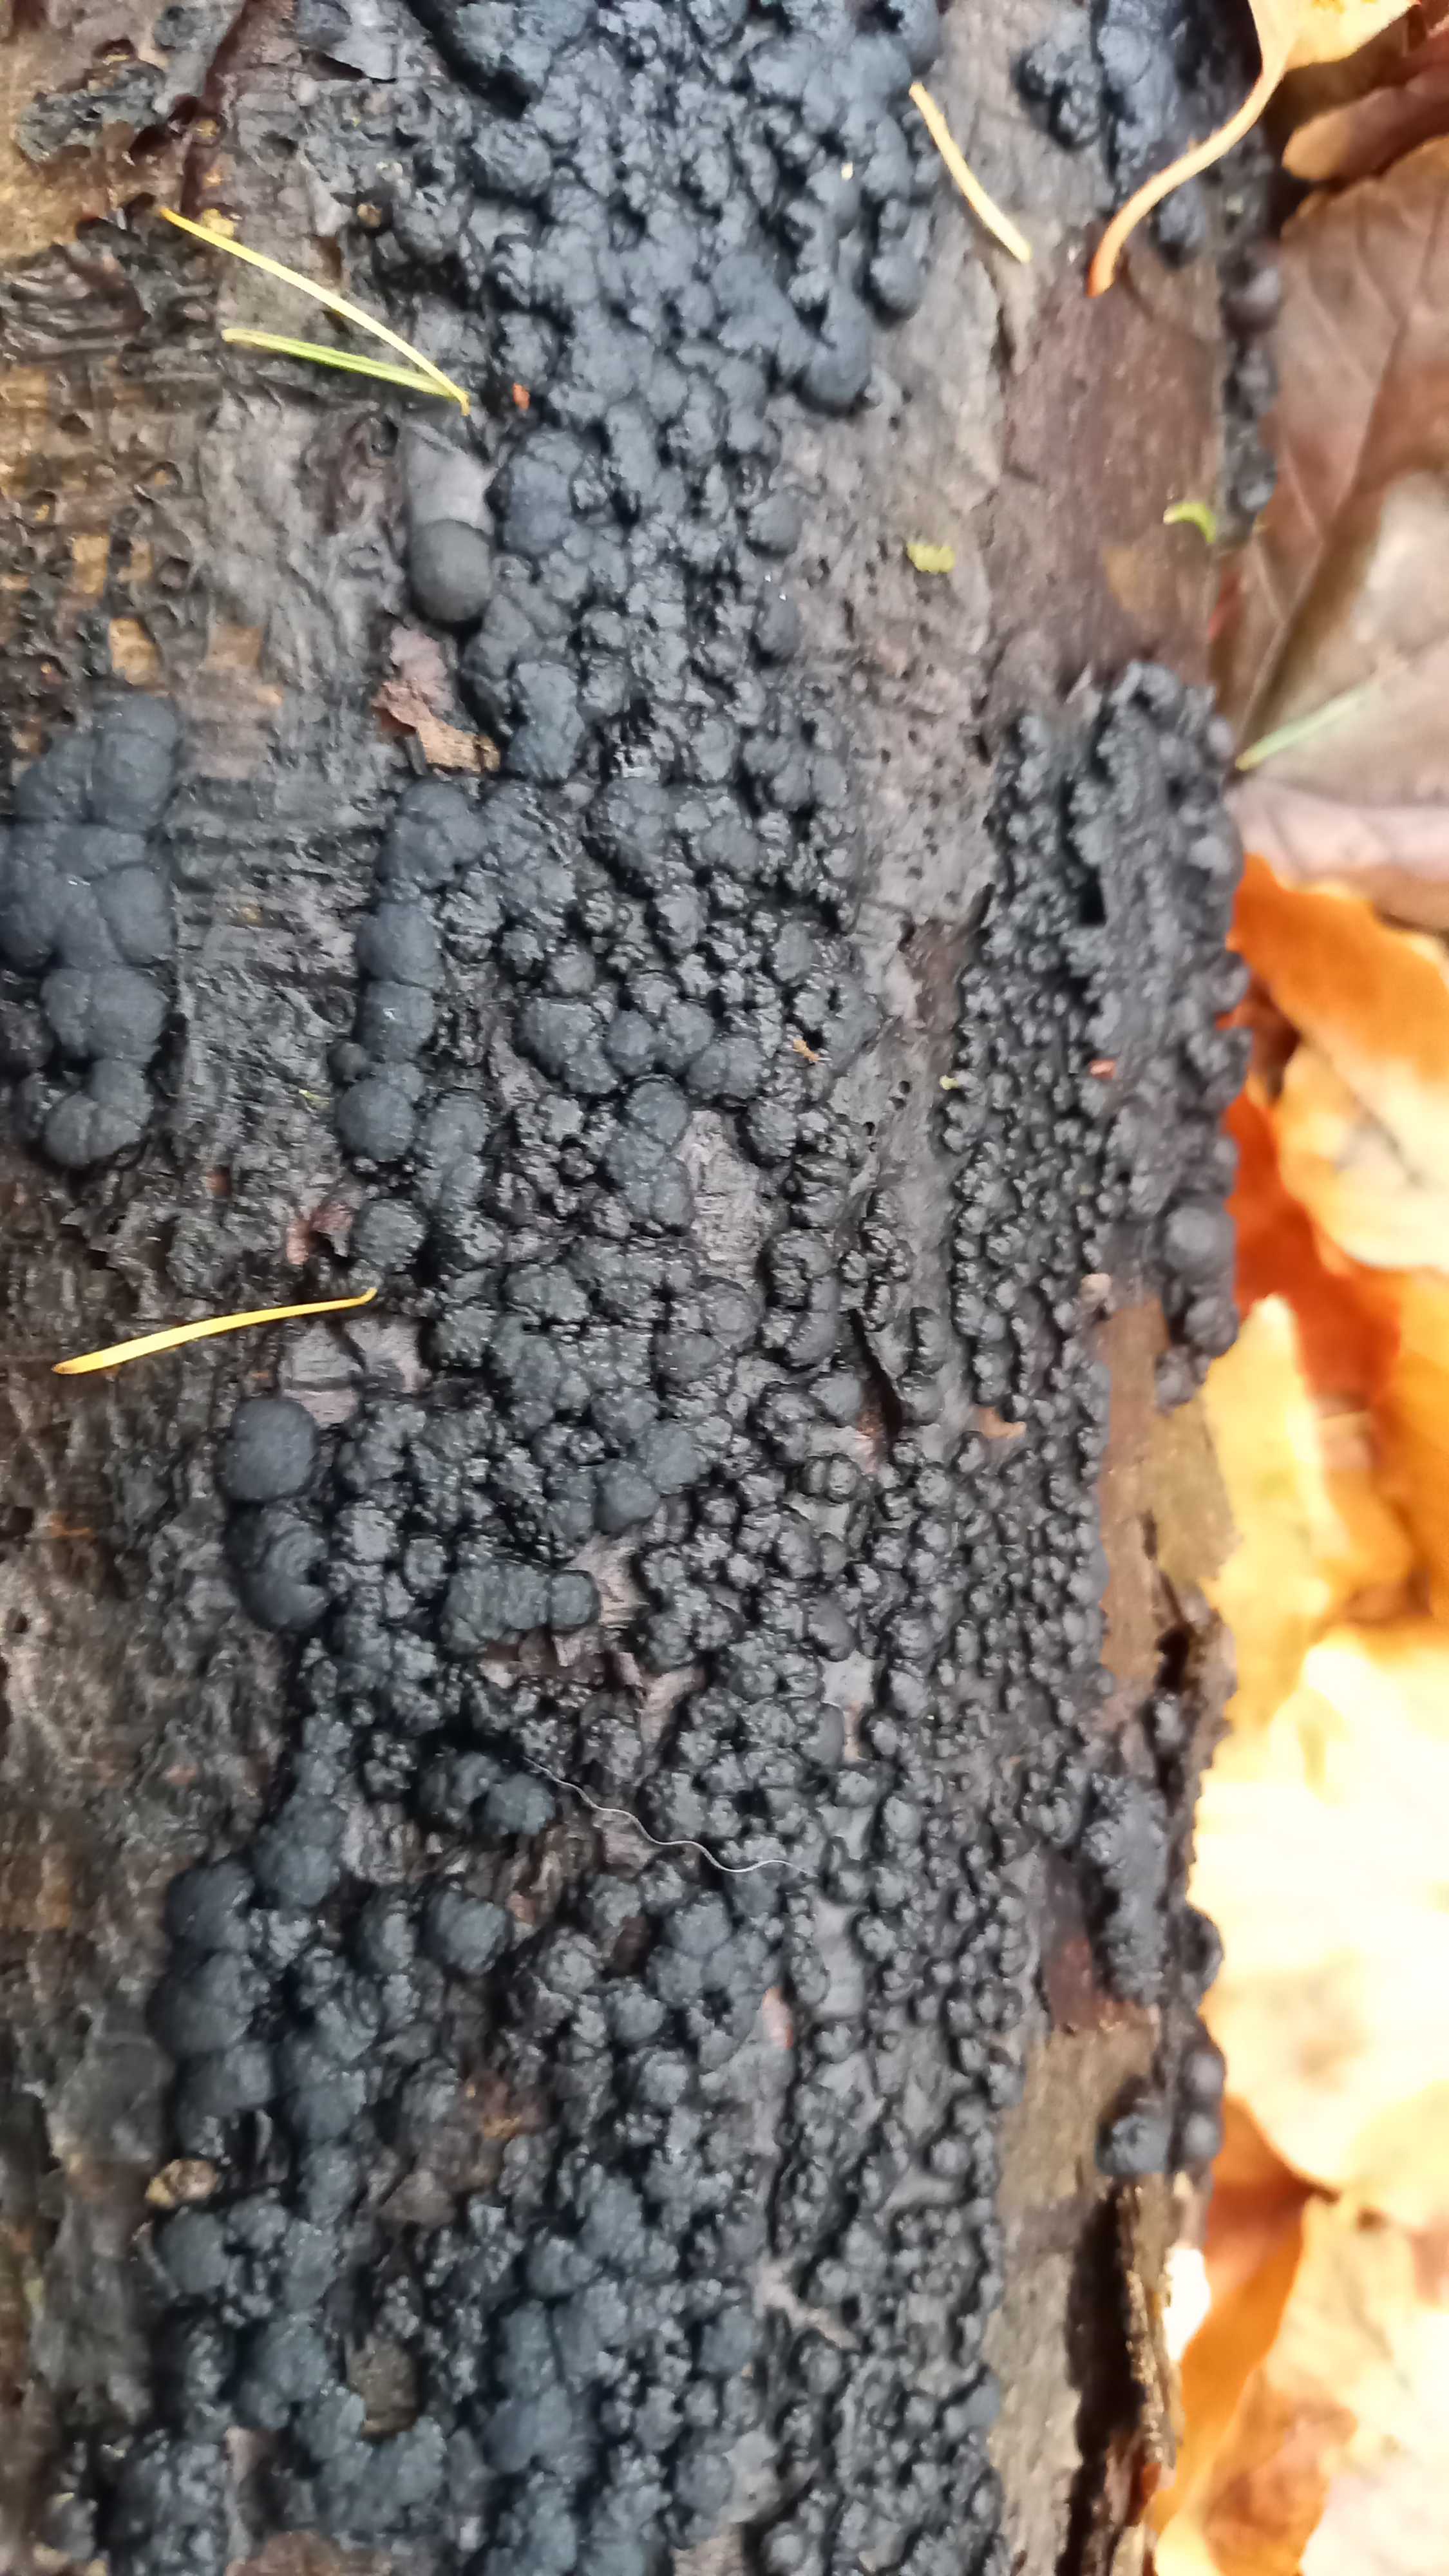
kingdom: Fungi
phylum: Ascomycota
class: Sordariomycetes
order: Xylariales
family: Hypoxylaceae
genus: Jackrogersella
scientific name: Jackrogersella cohaerens
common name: sammenflydende kulbær
